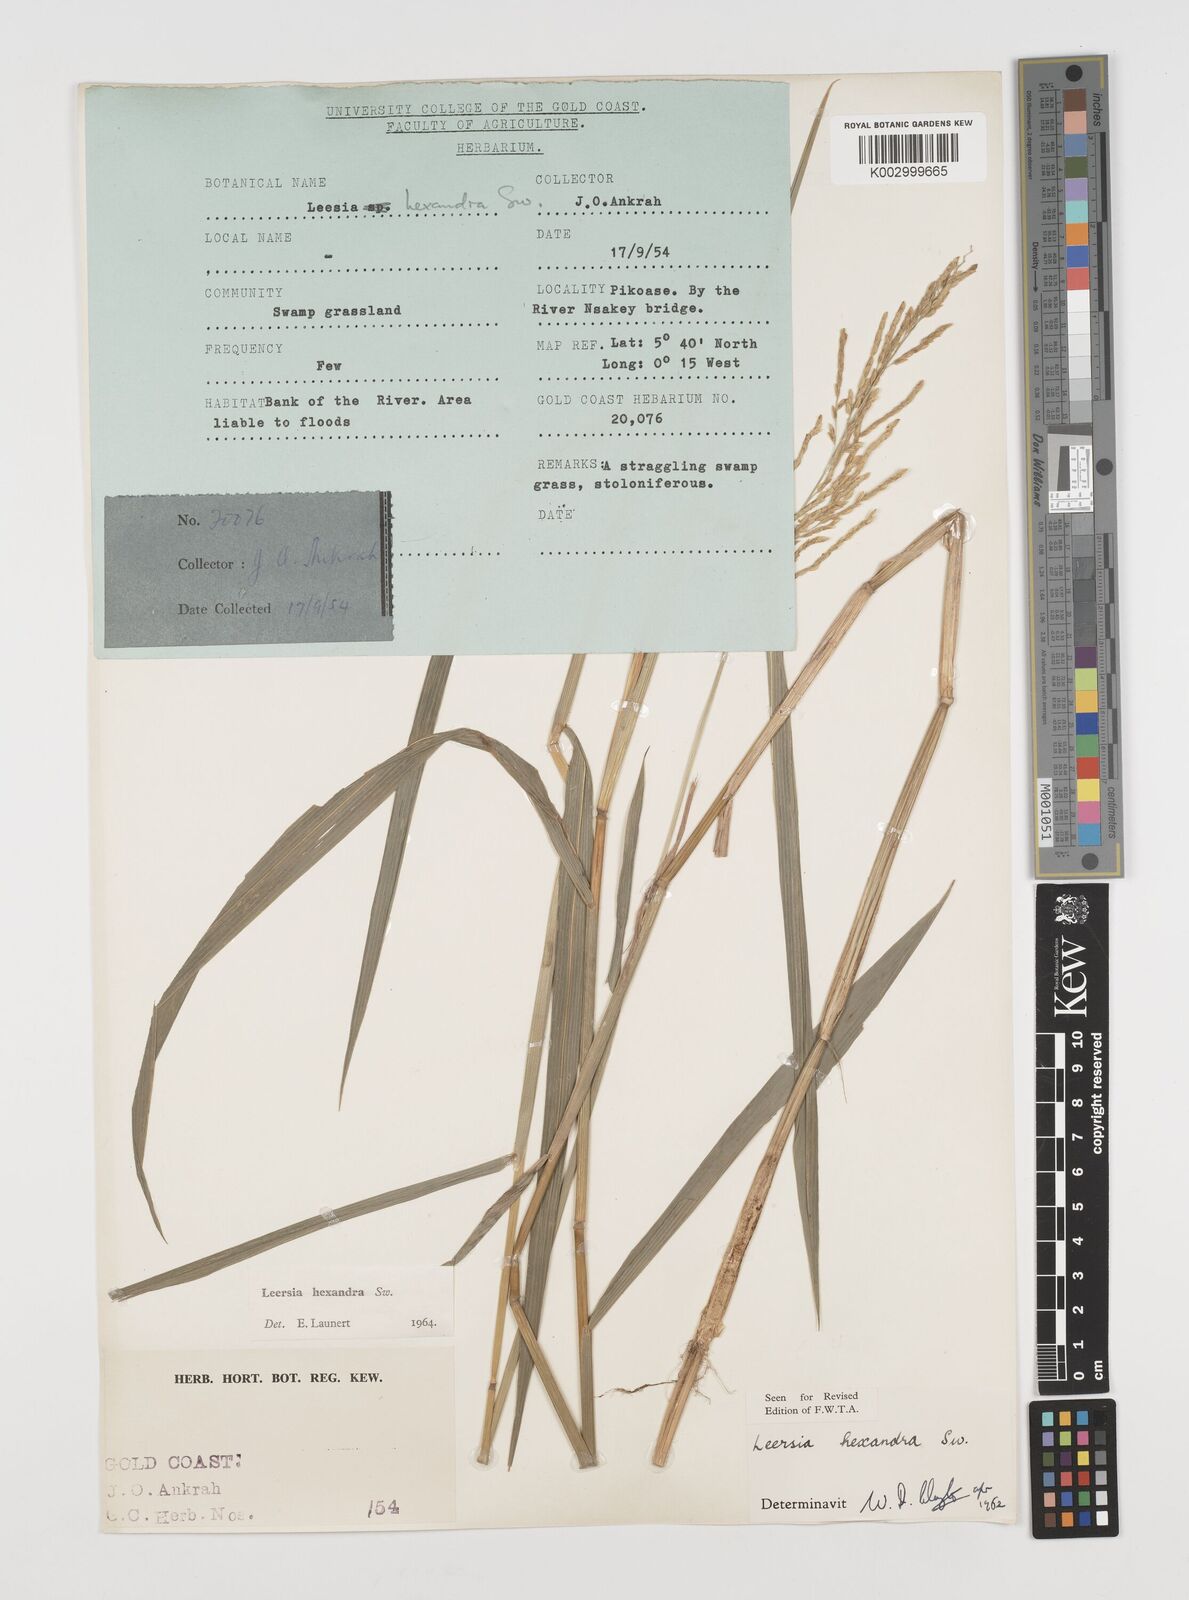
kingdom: Plantae
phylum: Tracheophyta
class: Liliopsida
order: Poales
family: Poaceae
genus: Leersia
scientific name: Leersia hexandra
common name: Southern cut grass
